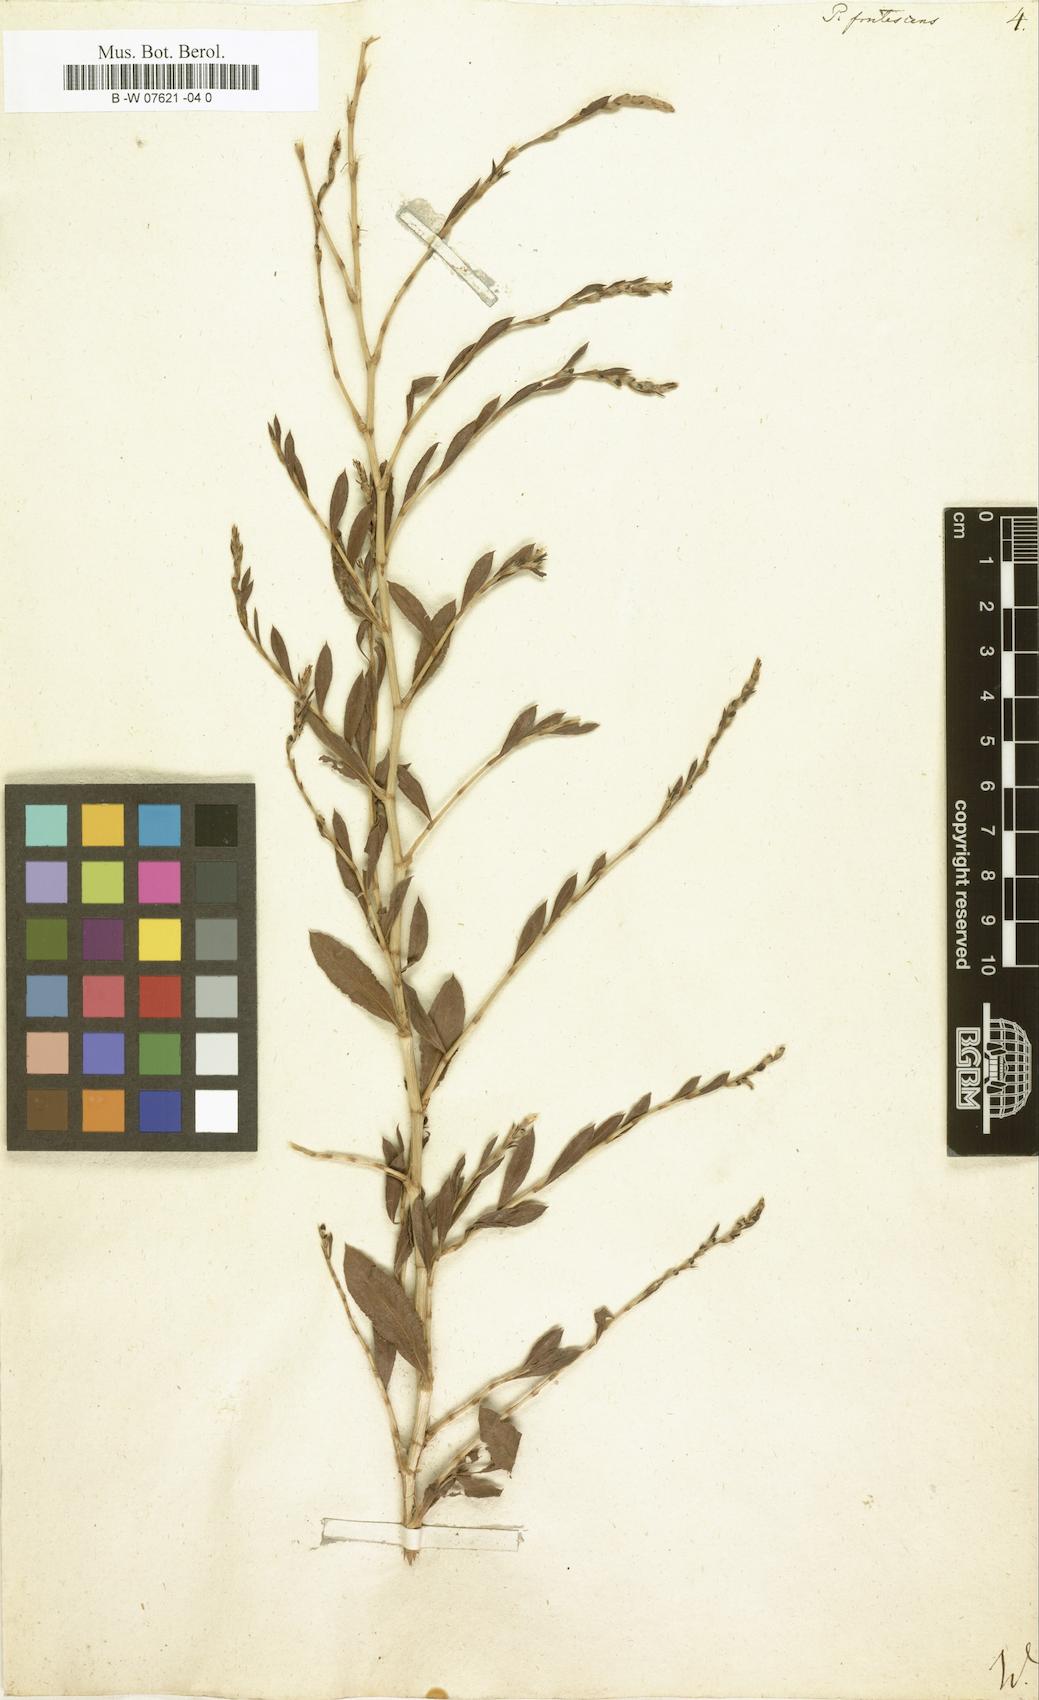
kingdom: Plantae
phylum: Tracheophyta
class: Magnoliopsida
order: Caryophyllales
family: Polygonaceae
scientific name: Polygonaceae
